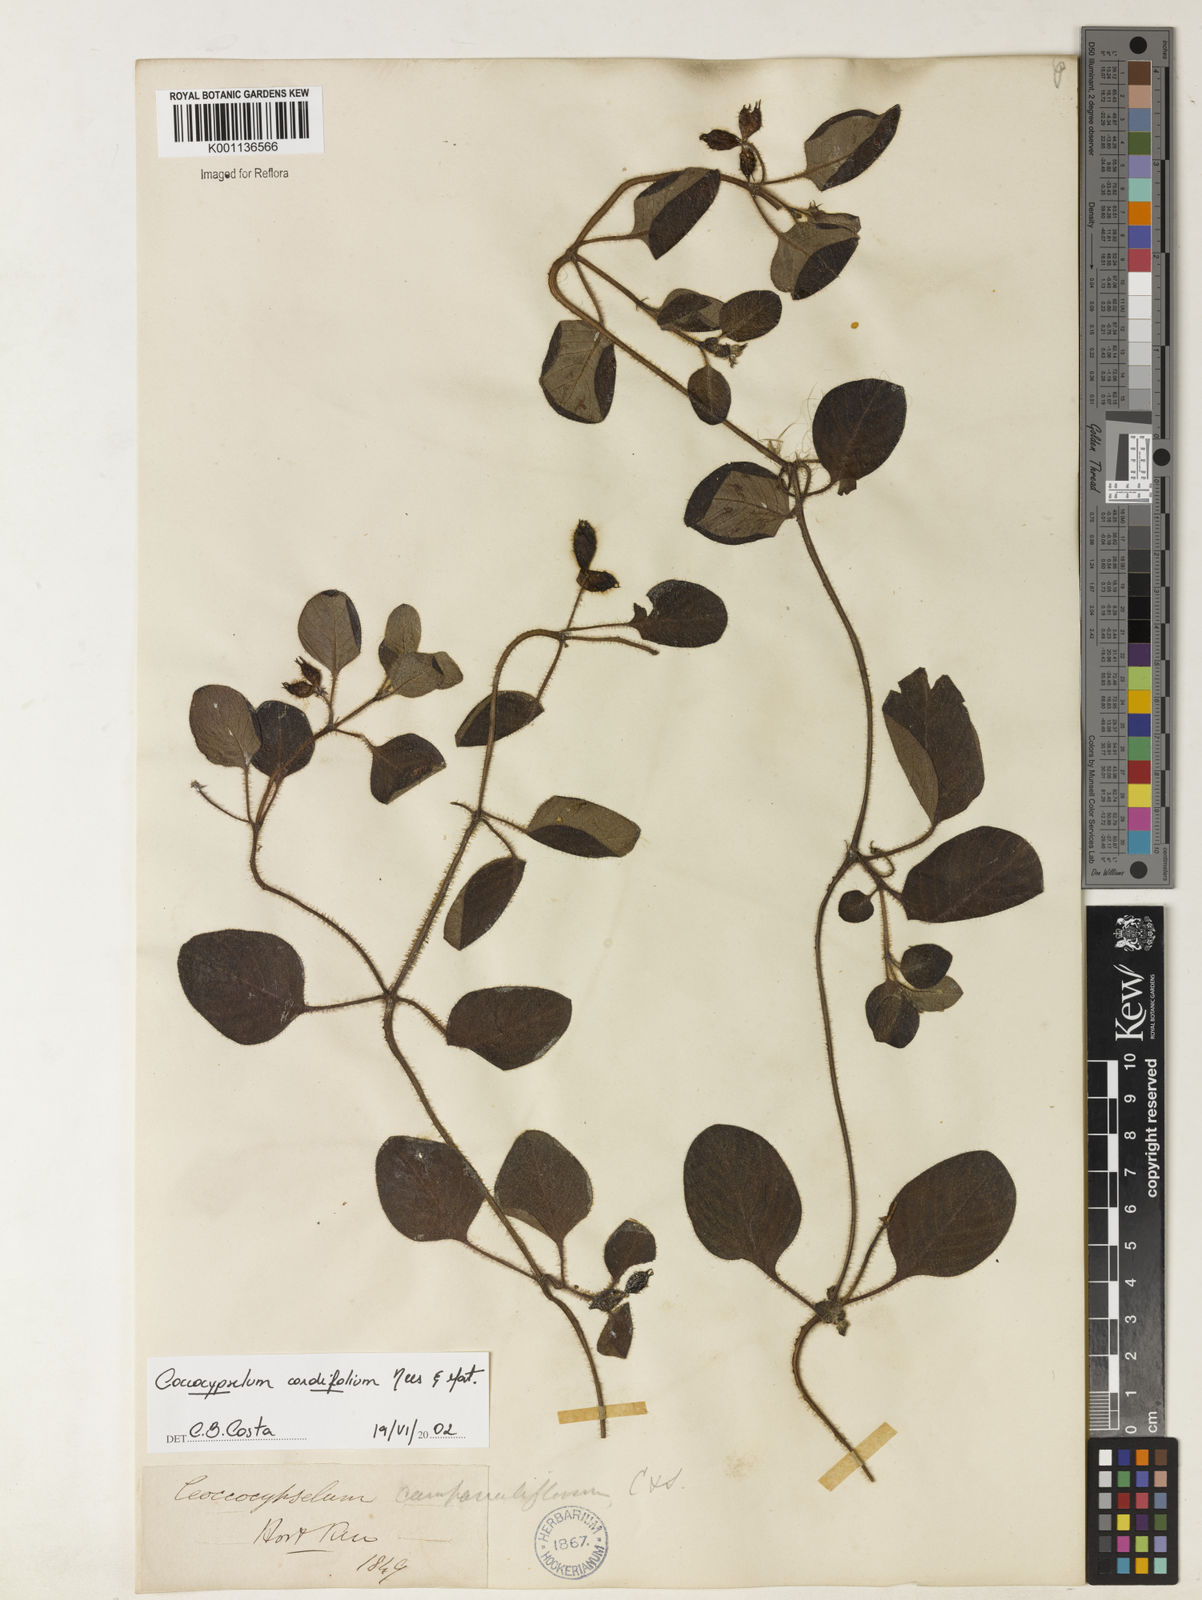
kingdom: Plantae
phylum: Tracheophyta
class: Magnoliopsida
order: Gentianales
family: Rubiaceae
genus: Coccocypselum
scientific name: Coccocypselum cordifolium
